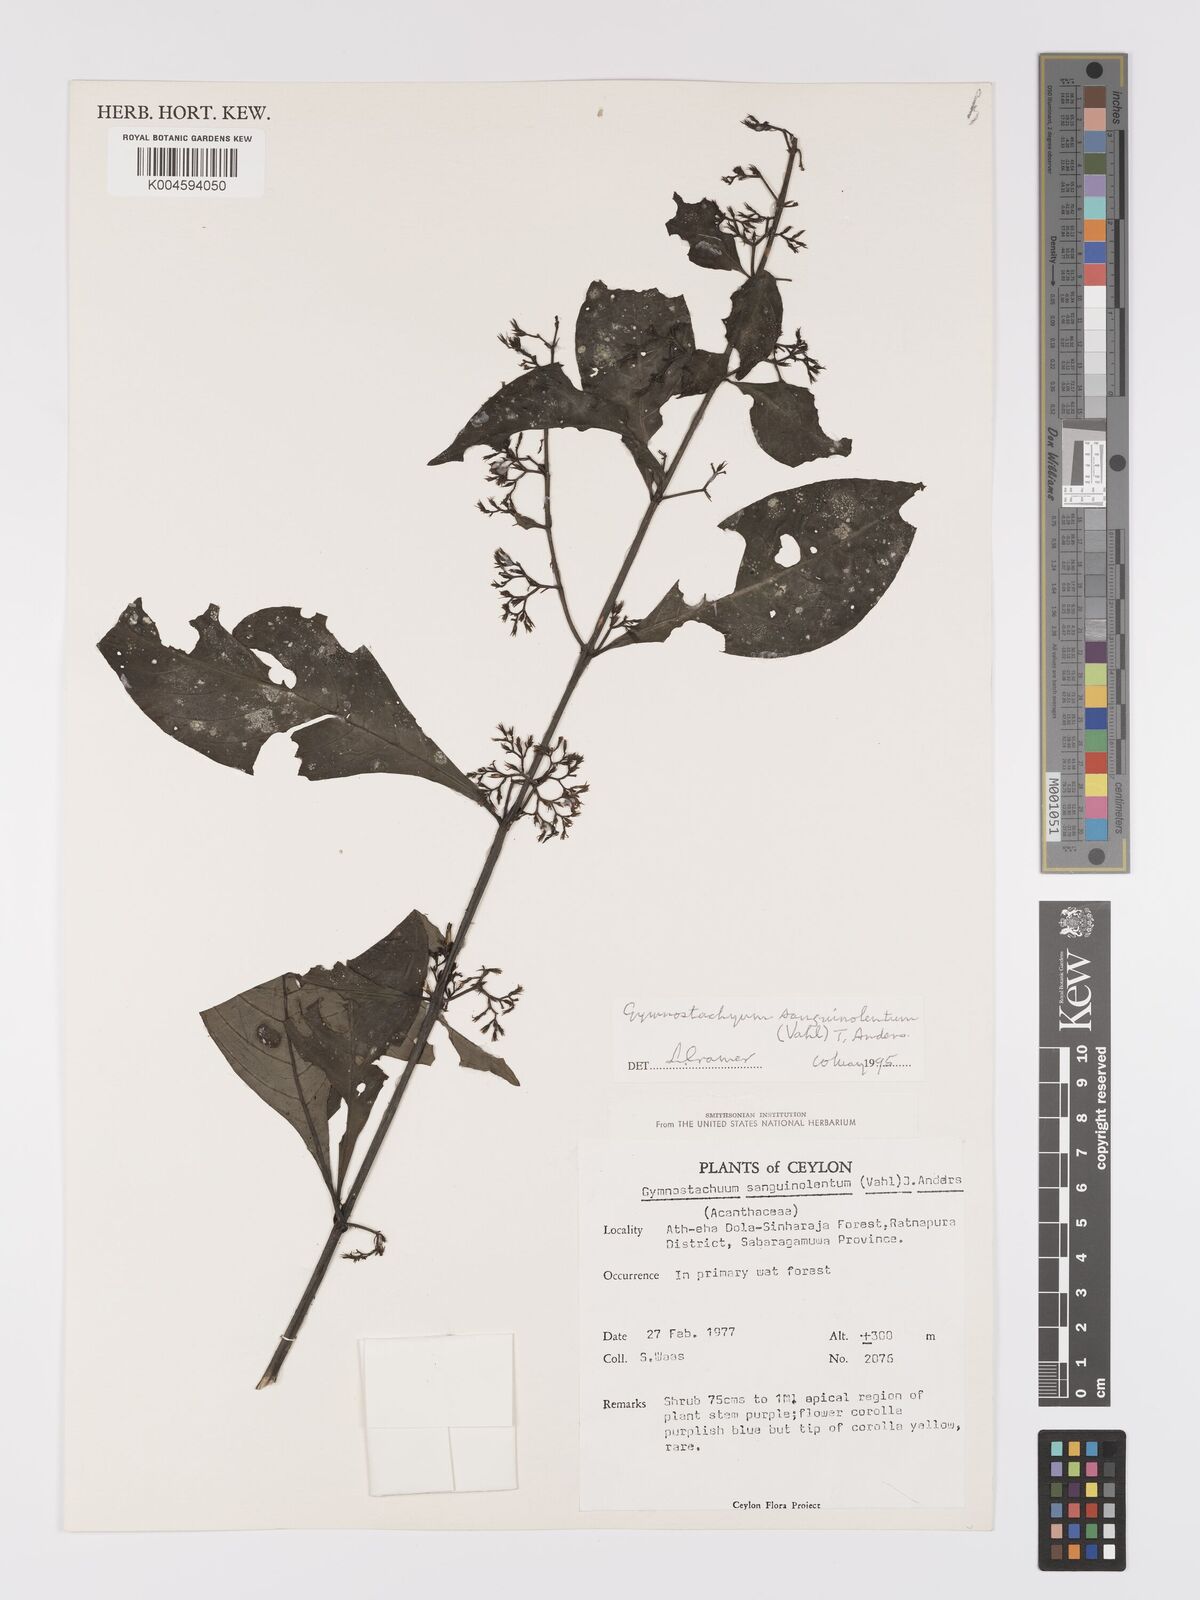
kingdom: Plantae
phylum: Tracheophyta
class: Magnoliopsida
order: Lamiales
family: Acanthaceae
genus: Gymnostachyum
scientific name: Gymnostachyum sanguinolentum
